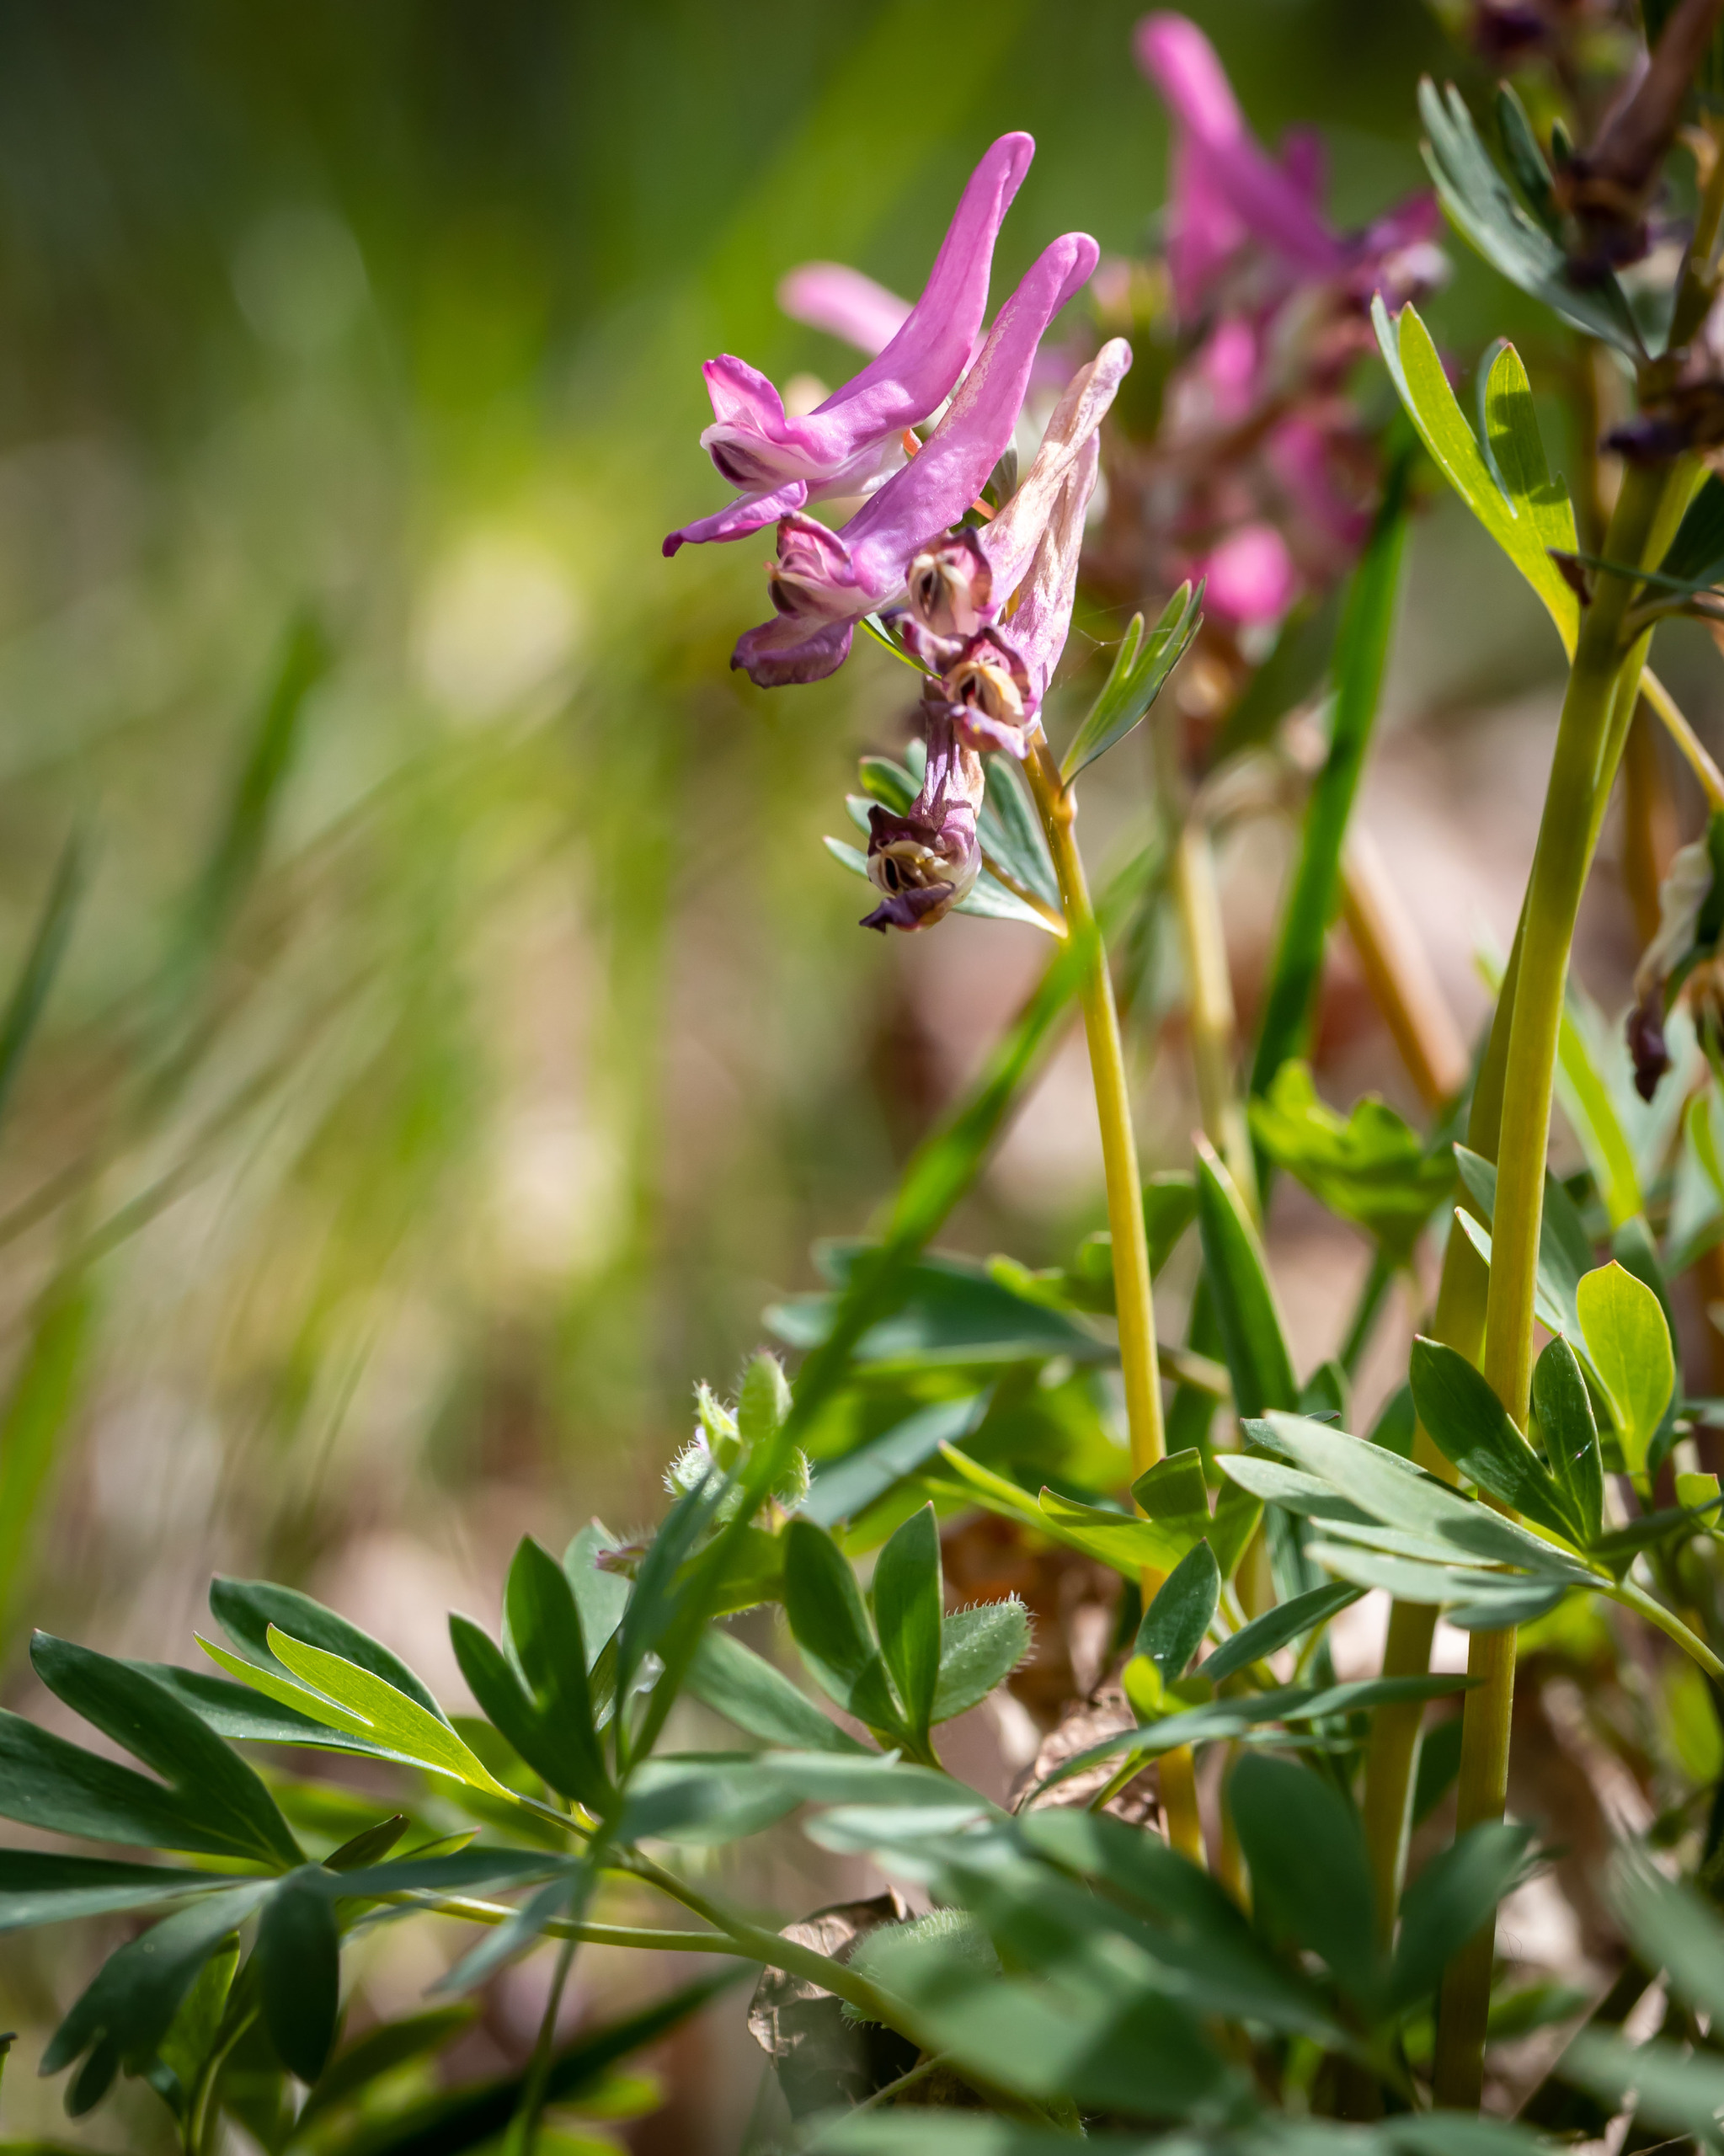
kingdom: Plantae
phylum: Tracheophyta
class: Magnoliopsida
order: Ranunculales
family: Papaveraceae
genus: Corydalis
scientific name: Corydalis solida
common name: Langstilket lærkespore
